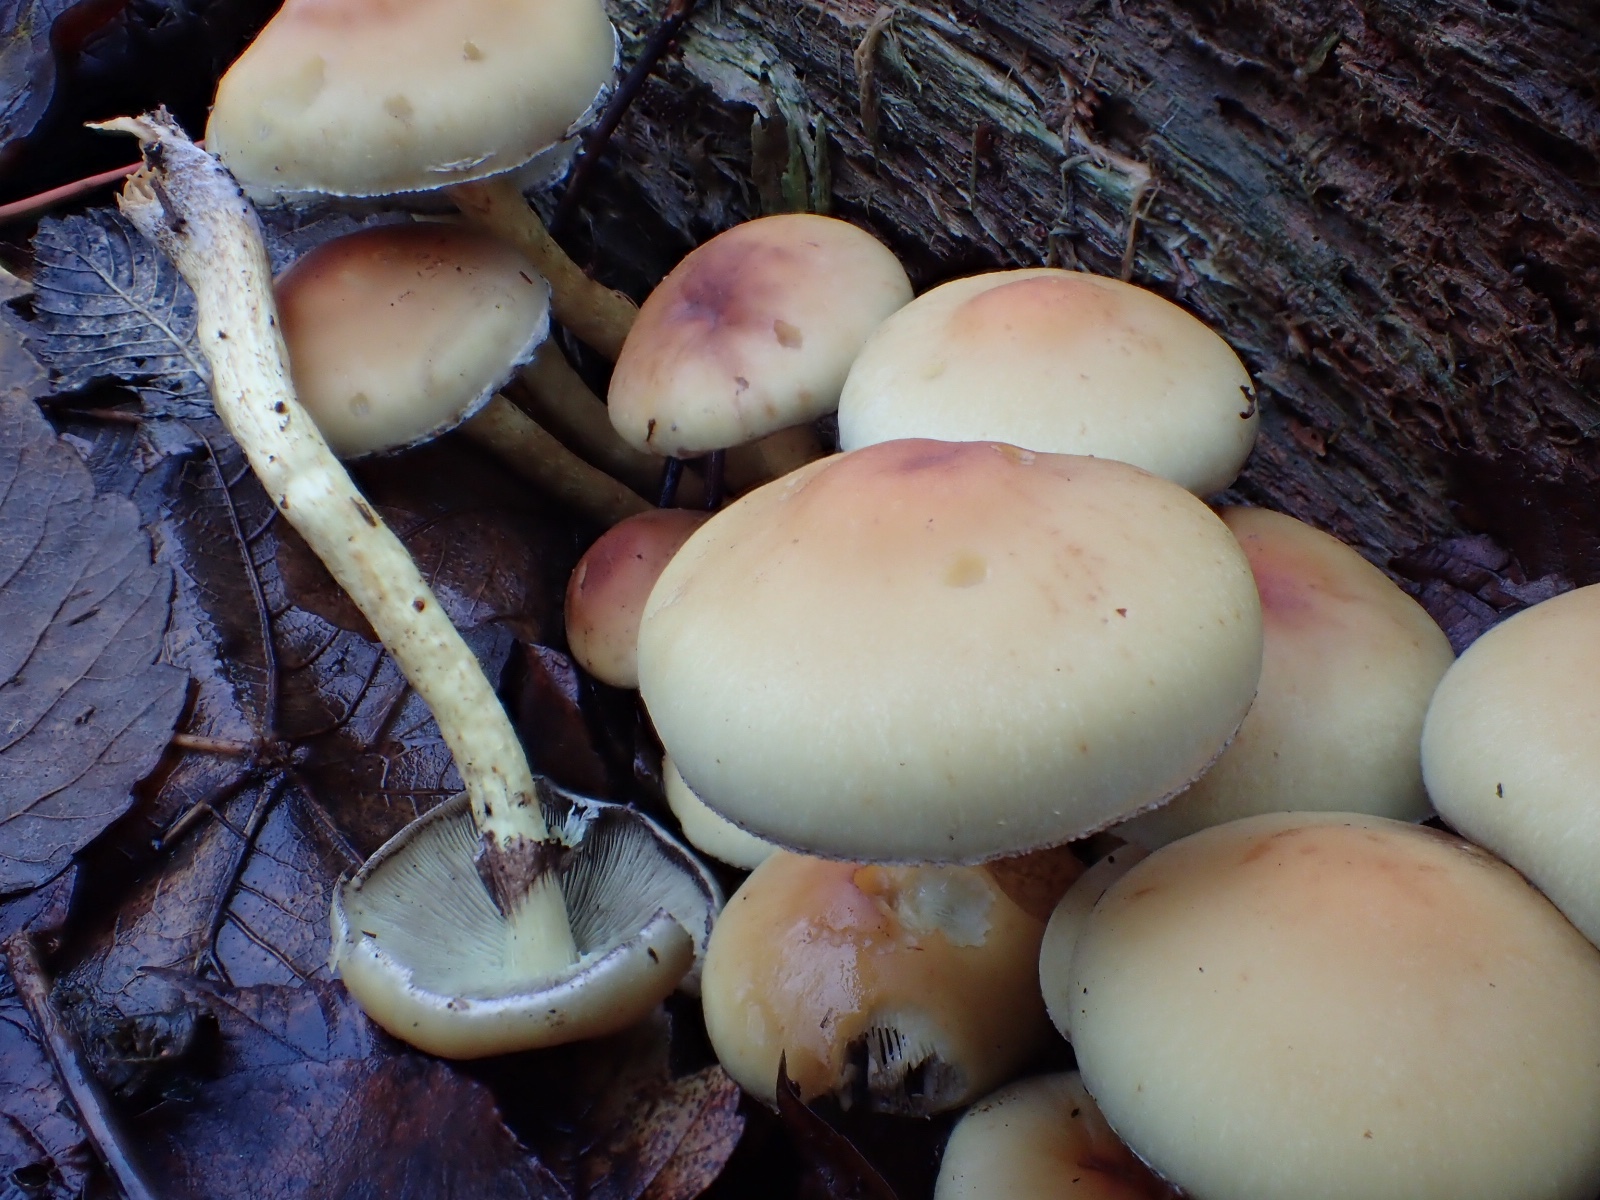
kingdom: Fungi
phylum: Basidiomycota
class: Agaricomycetes
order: Agaricales
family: Strophariaceae
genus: Hypholoma
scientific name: Hypholoma fasciculare
